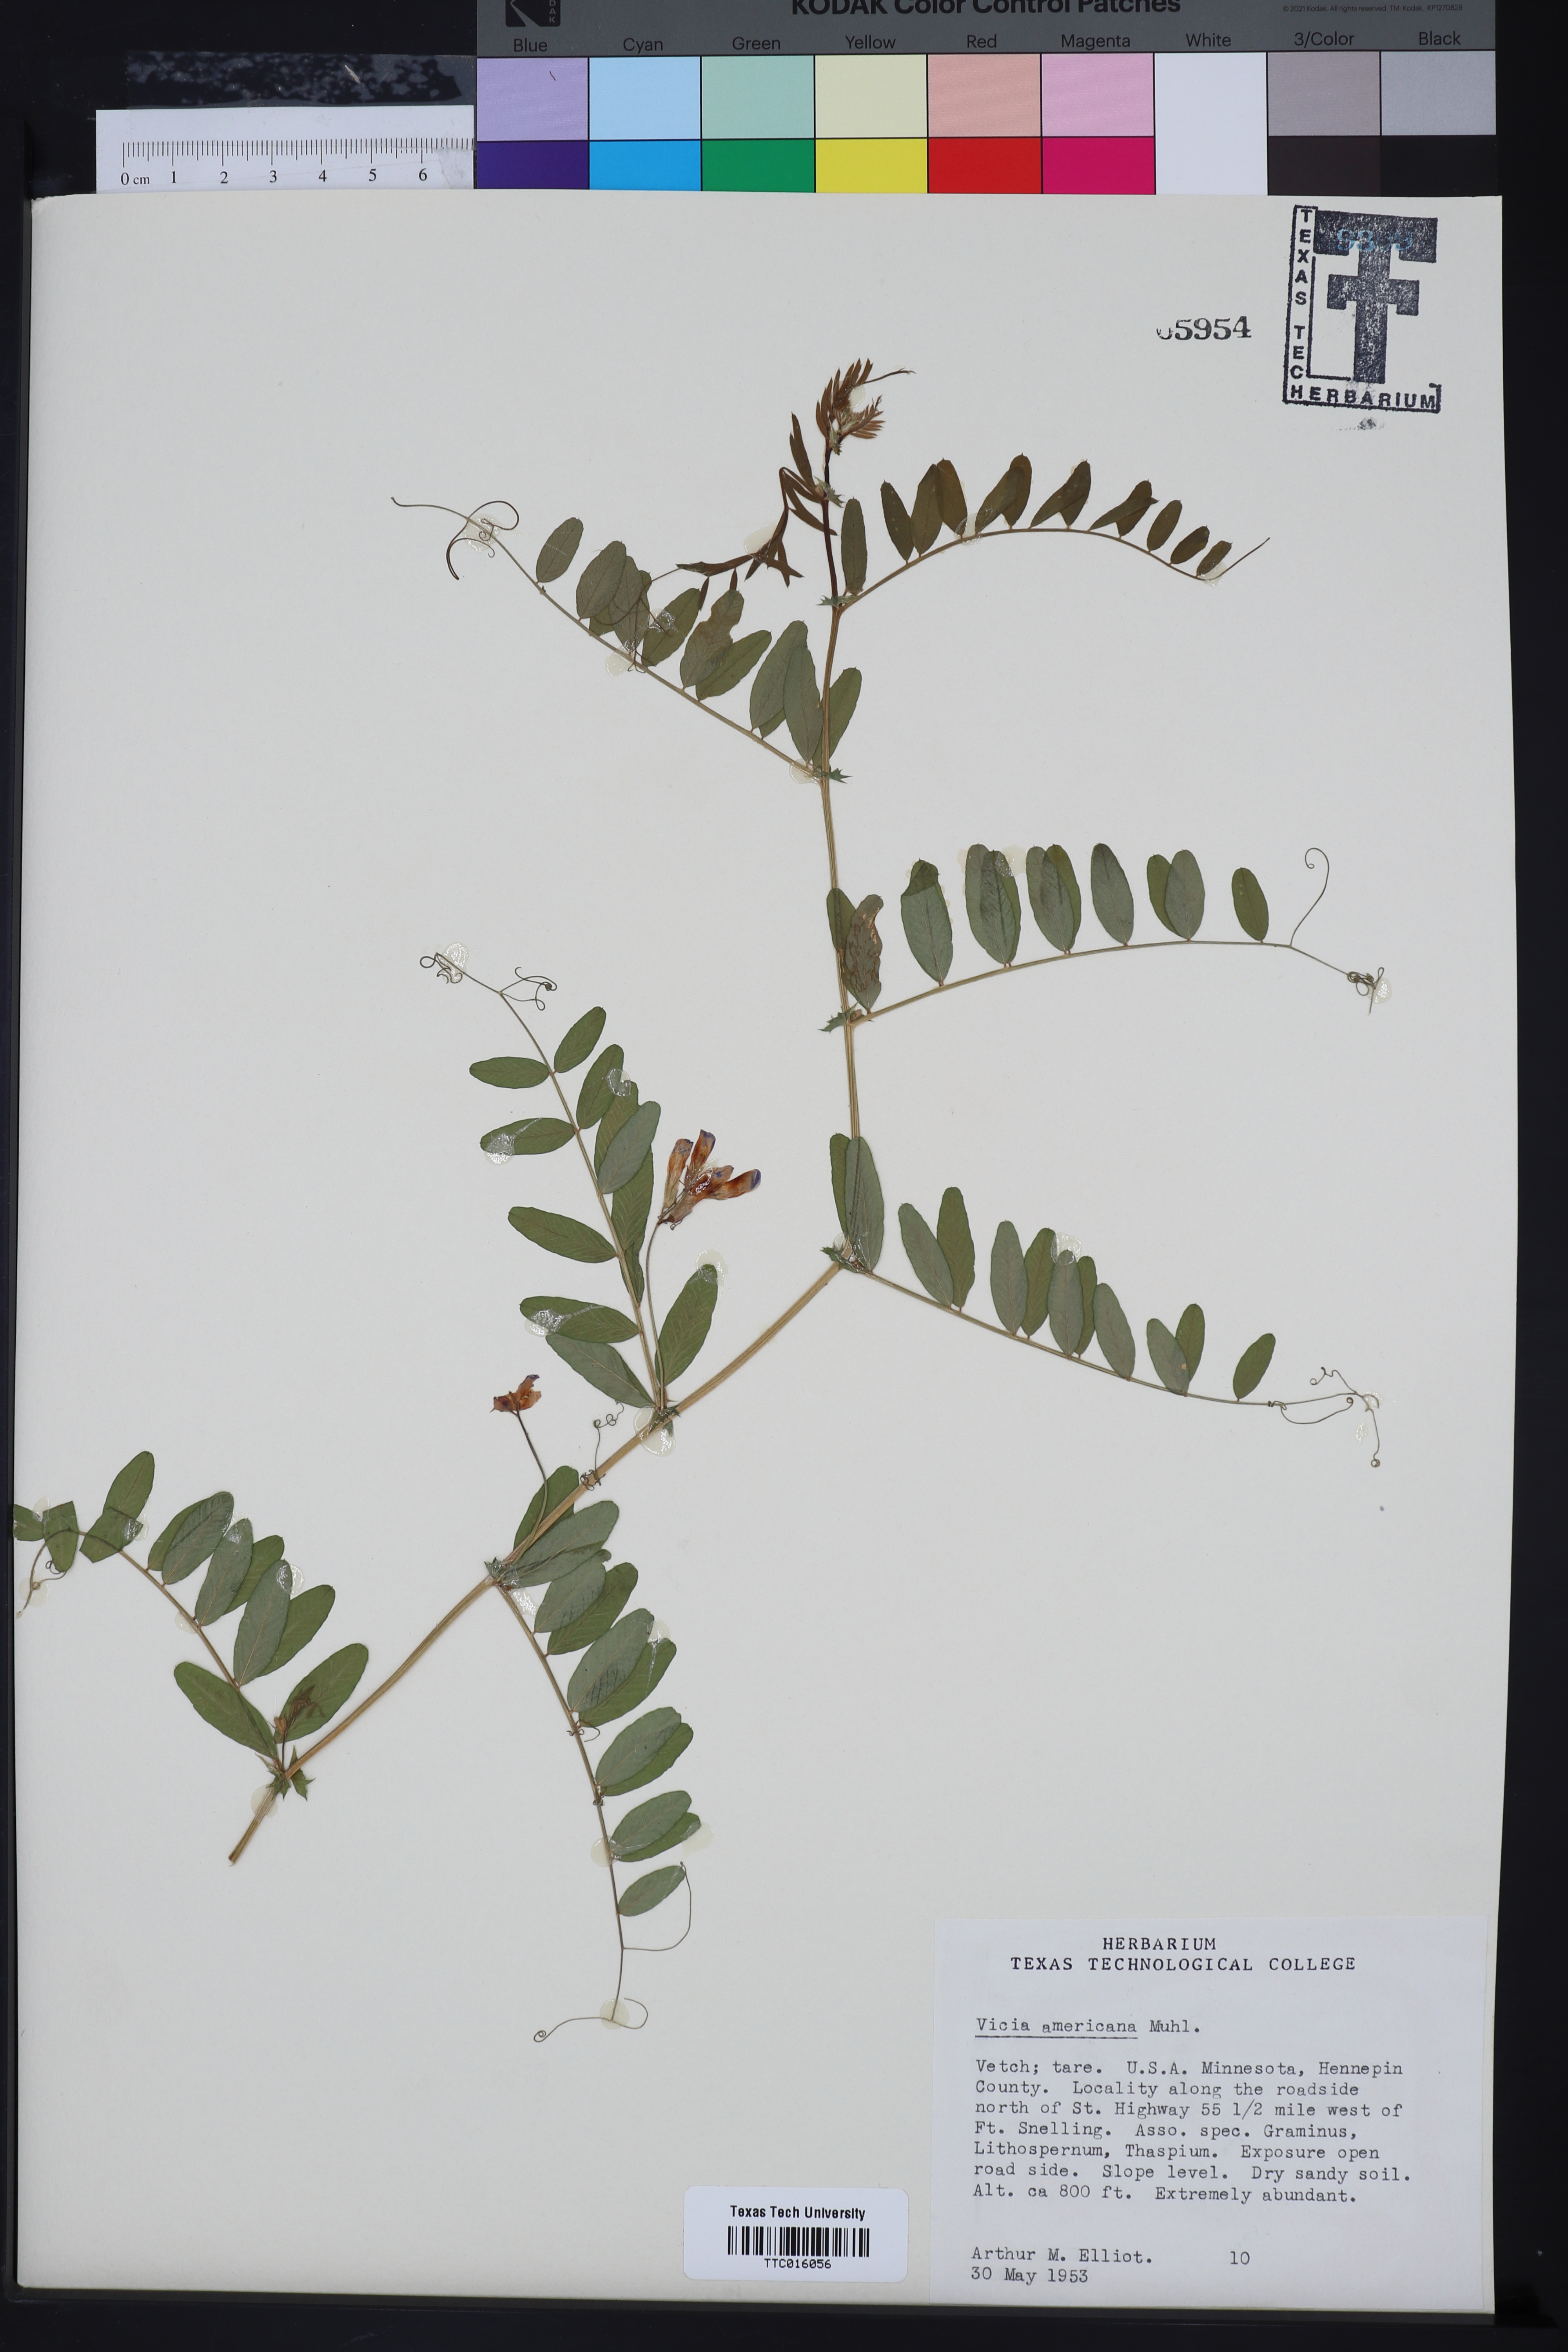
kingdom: Plantae
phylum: Tracheophyta
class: Magnoliopsida
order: Fabales
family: Fabaceae
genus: Vicia
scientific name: Vicia americana
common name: American vetch
